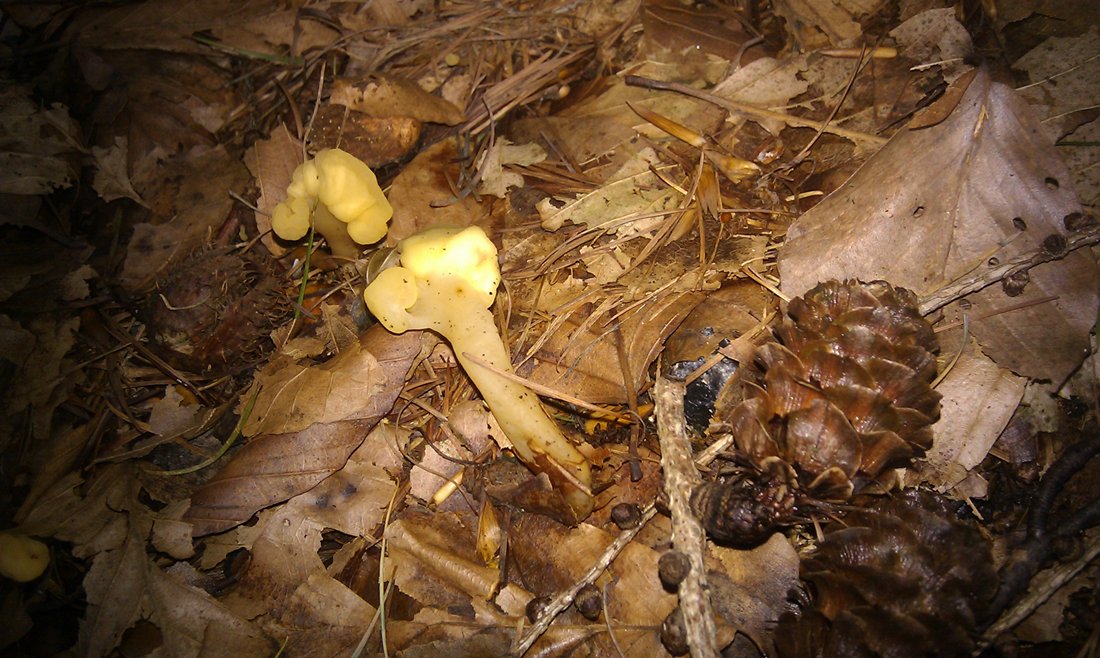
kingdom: Fungi
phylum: Ascomycota
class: Leotiomycetes
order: Rhytismatales
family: Cudoniaceae
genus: Spathularia
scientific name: Spathularia flavida
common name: gul spatelsvamp
